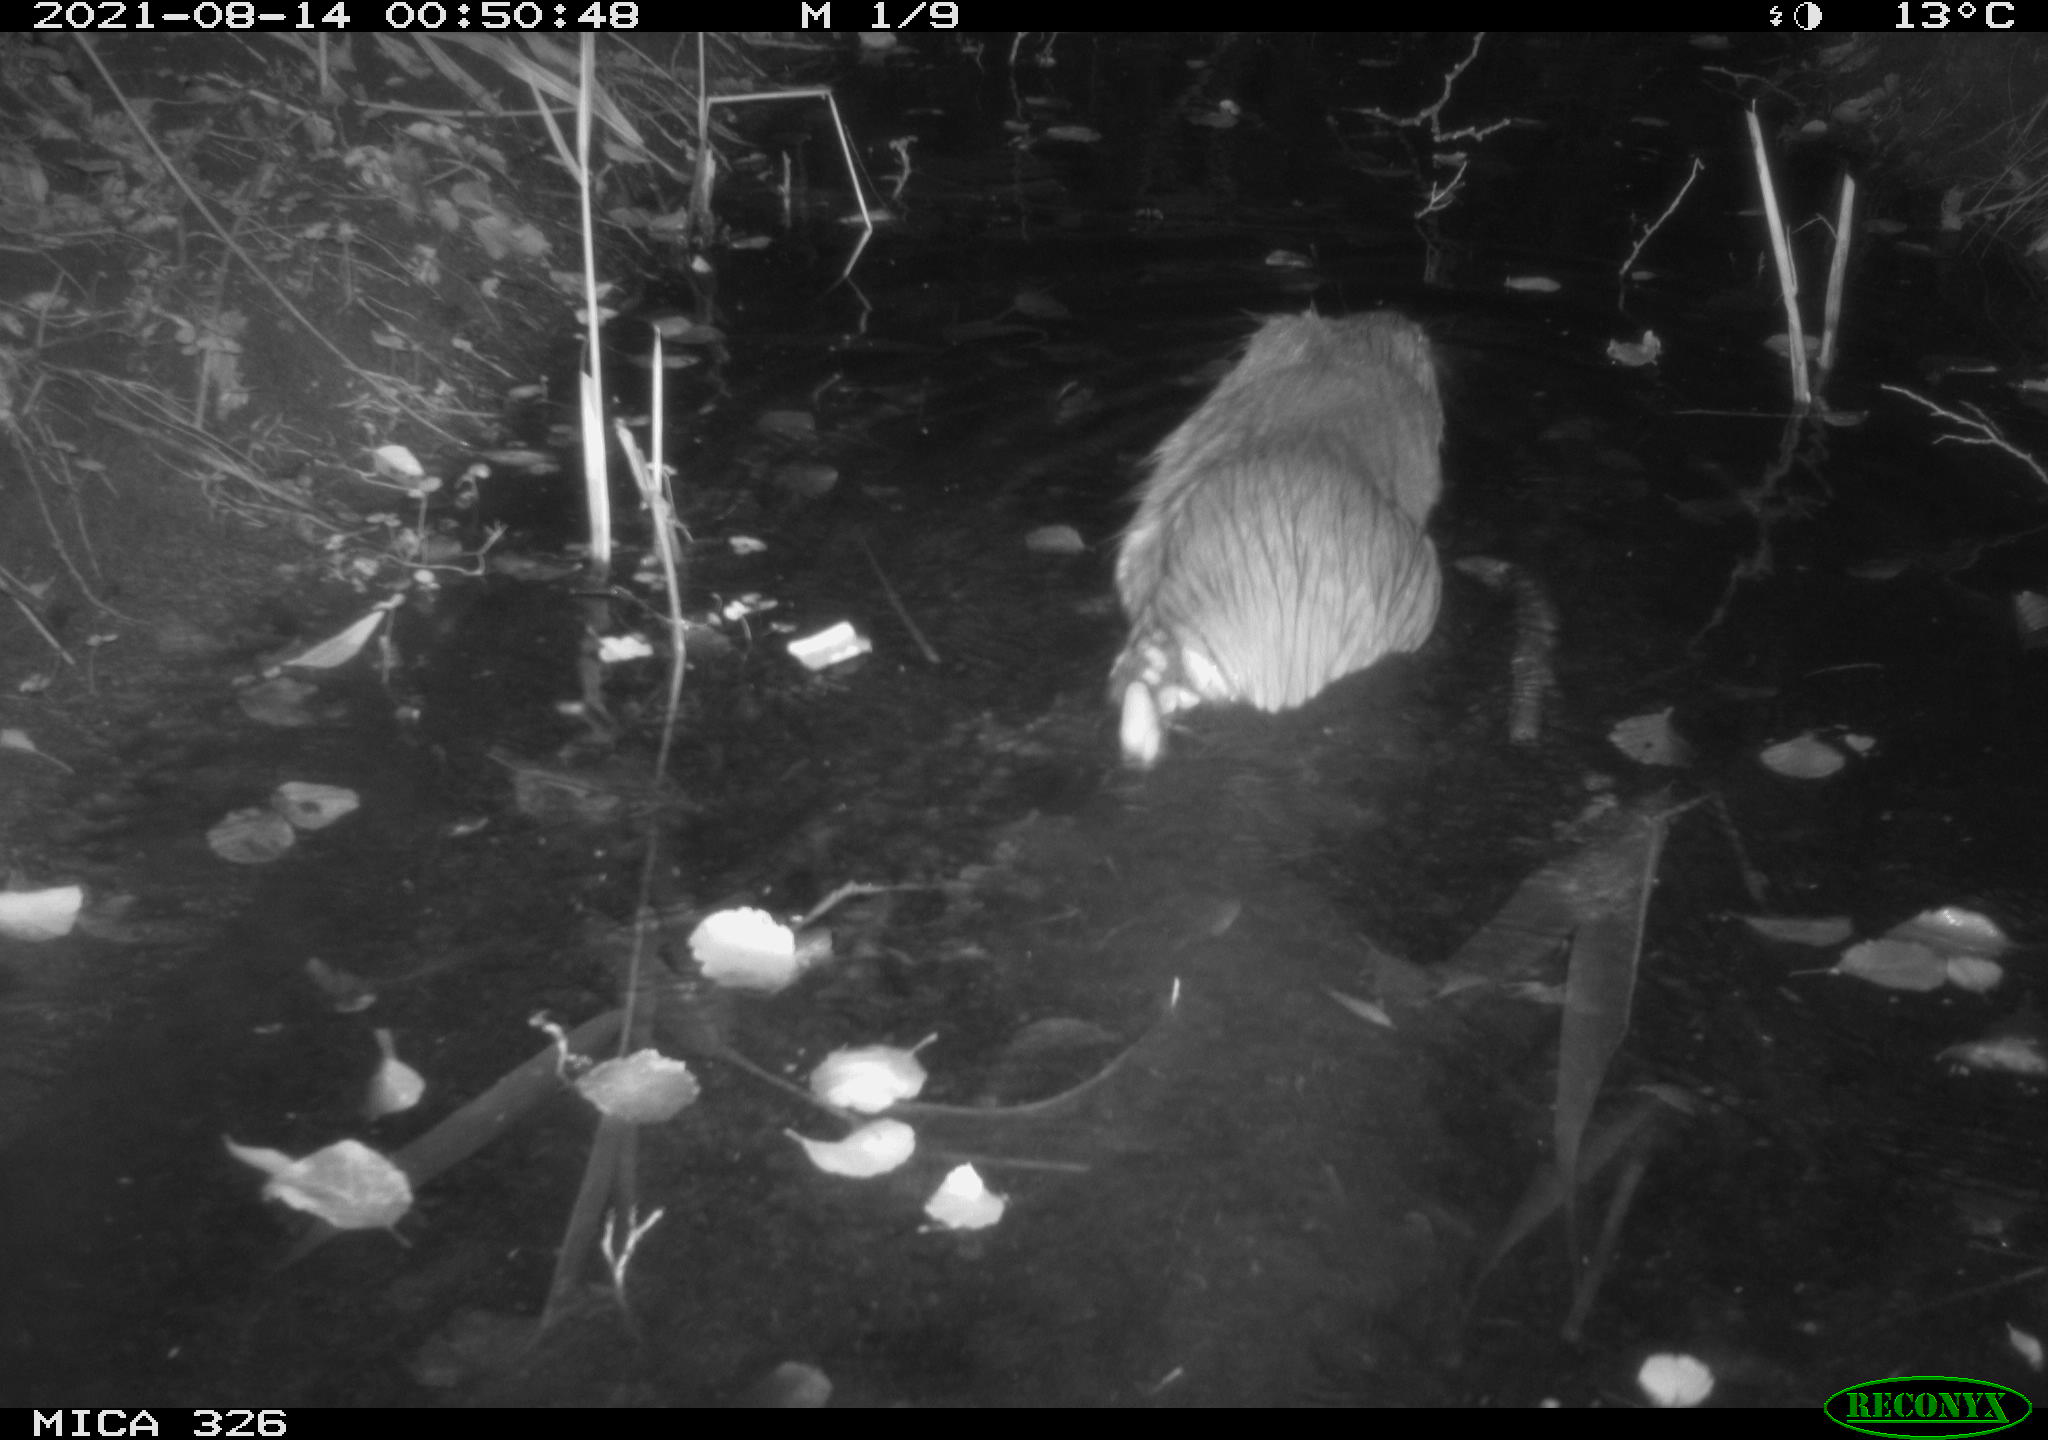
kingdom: Animalia
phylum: Chordata
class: Mammalia
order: Rodentia
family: Myocastoridae
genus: Myocastor
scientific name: Myocastor coypus
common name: Coypu
